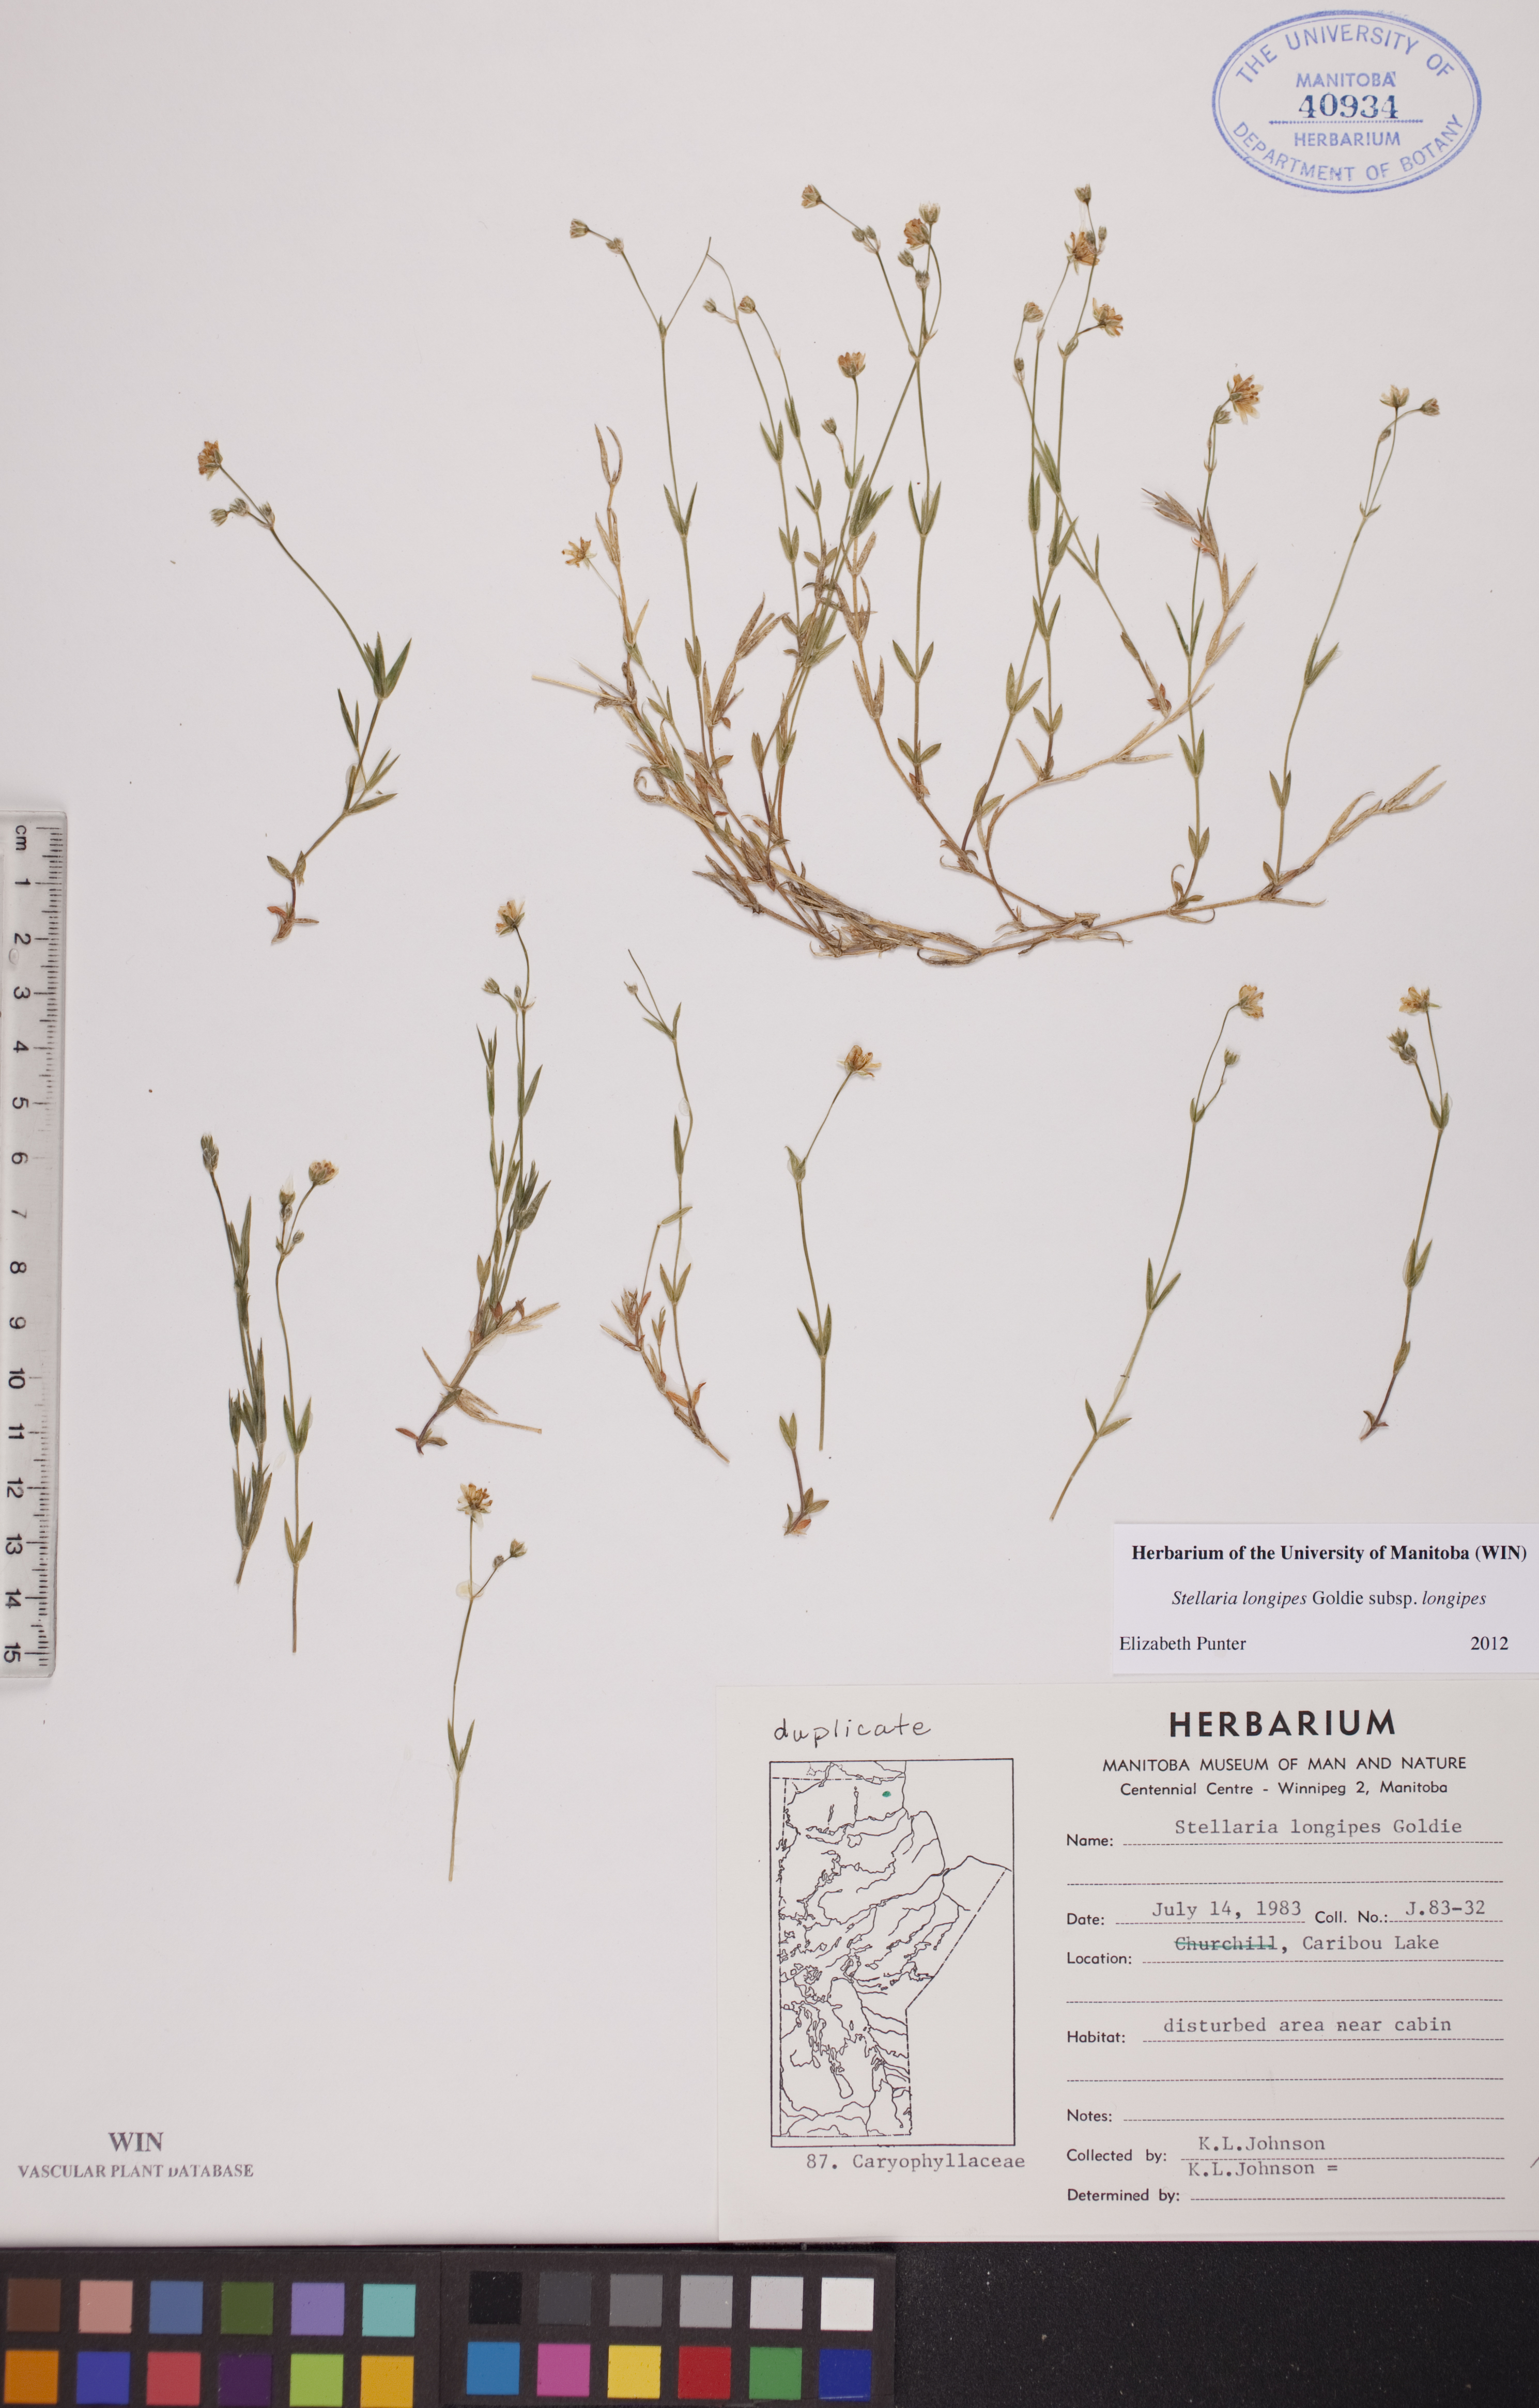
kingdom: Plantae
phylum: Tracheophyta
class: Magnoliopsida
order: Caryophyllales
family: Caryophyllaceae
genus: Stellaria
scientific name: Stellaria longipes
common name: Goldie's starwort
